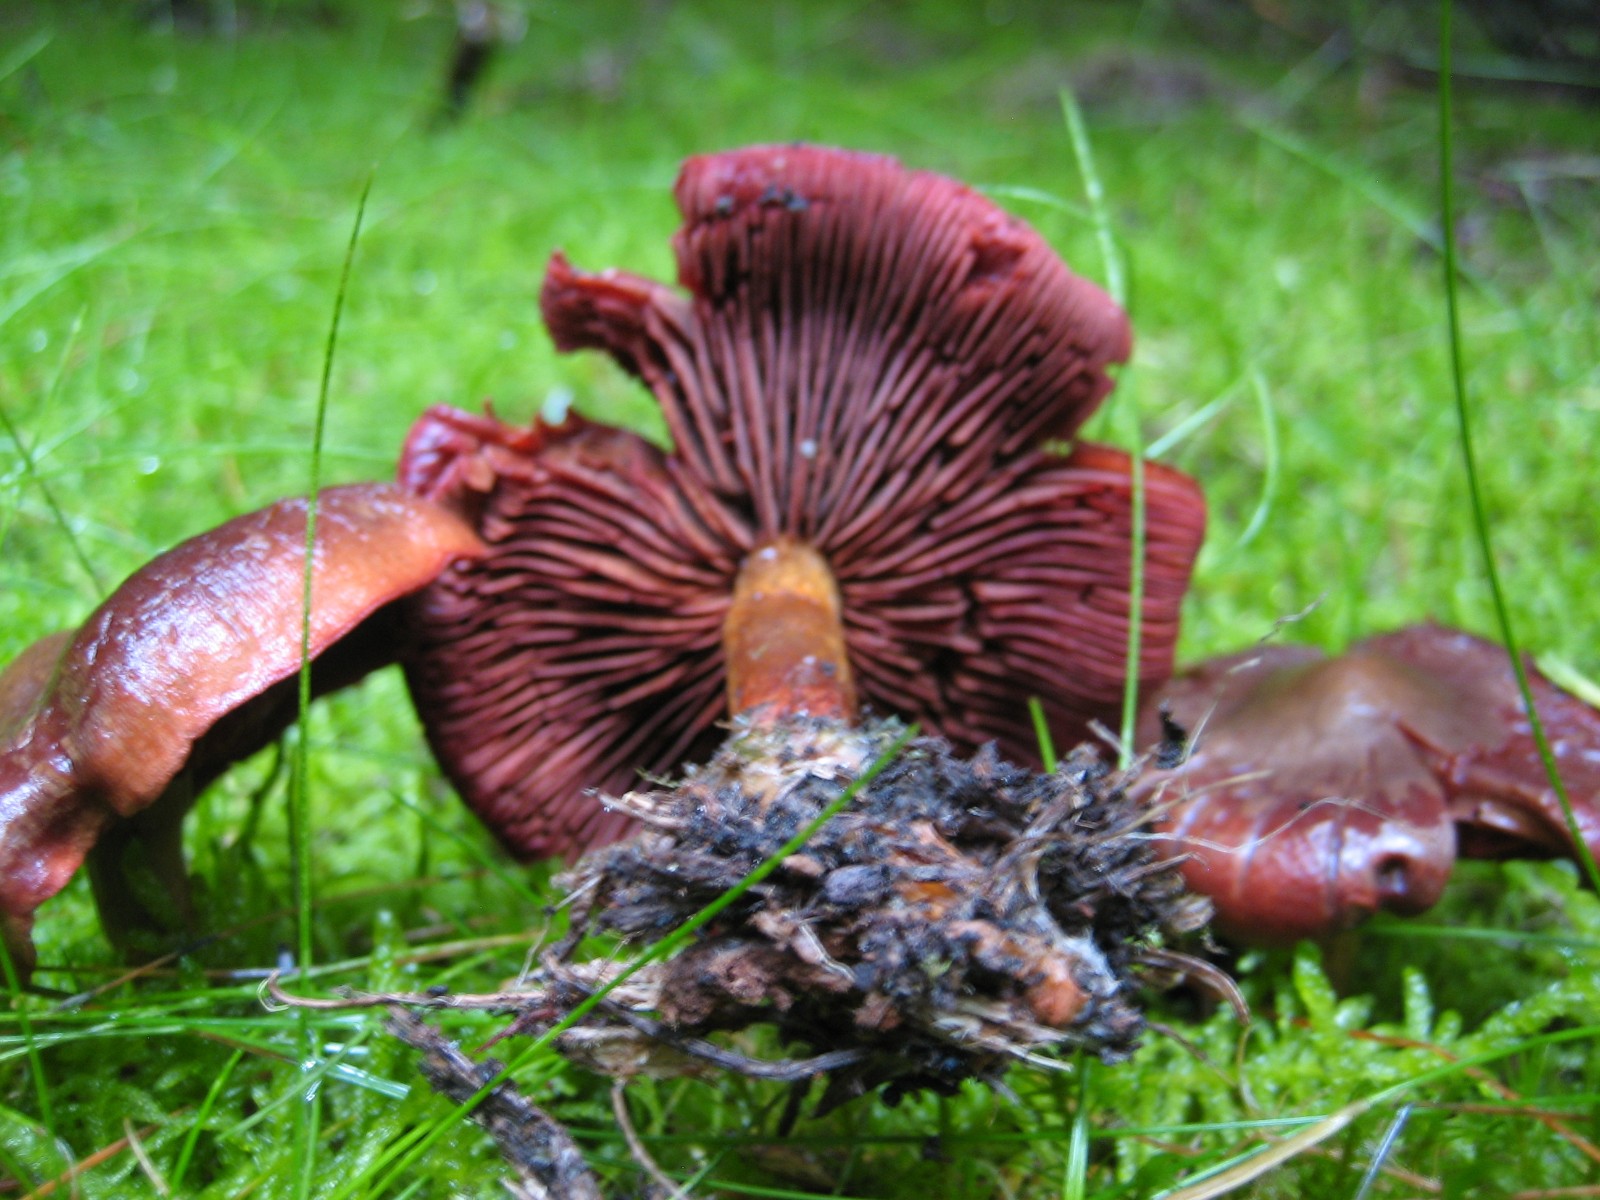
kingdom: Fungi
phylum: Basidiomycota
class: Agaricomycetes
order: Agaricales
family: Cortinariaceae
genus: Cortinarius
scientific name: Cortinarius
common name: cinnoberbladet slørhat
